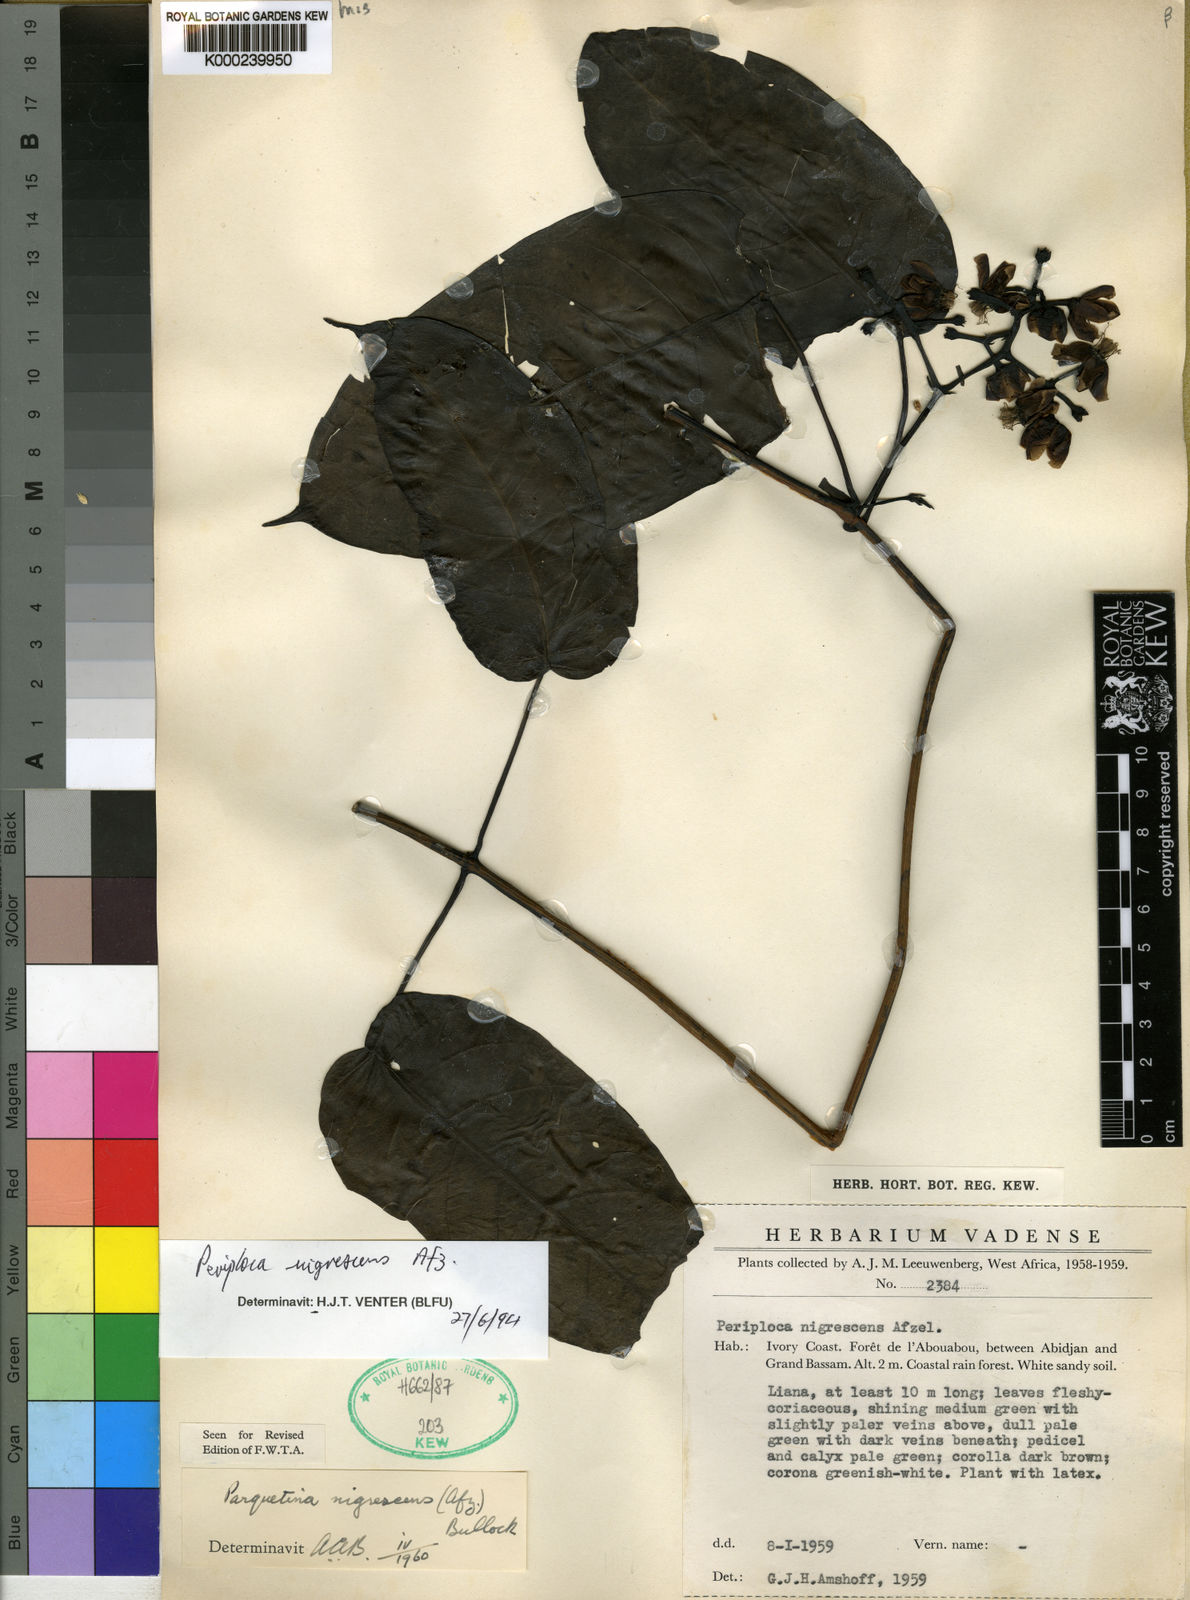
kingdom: Plantae
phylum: Tracheophyta
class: Magnoliopsida
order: Gentianales
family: Apocynaceae
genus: Periploca
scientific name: Periploca
